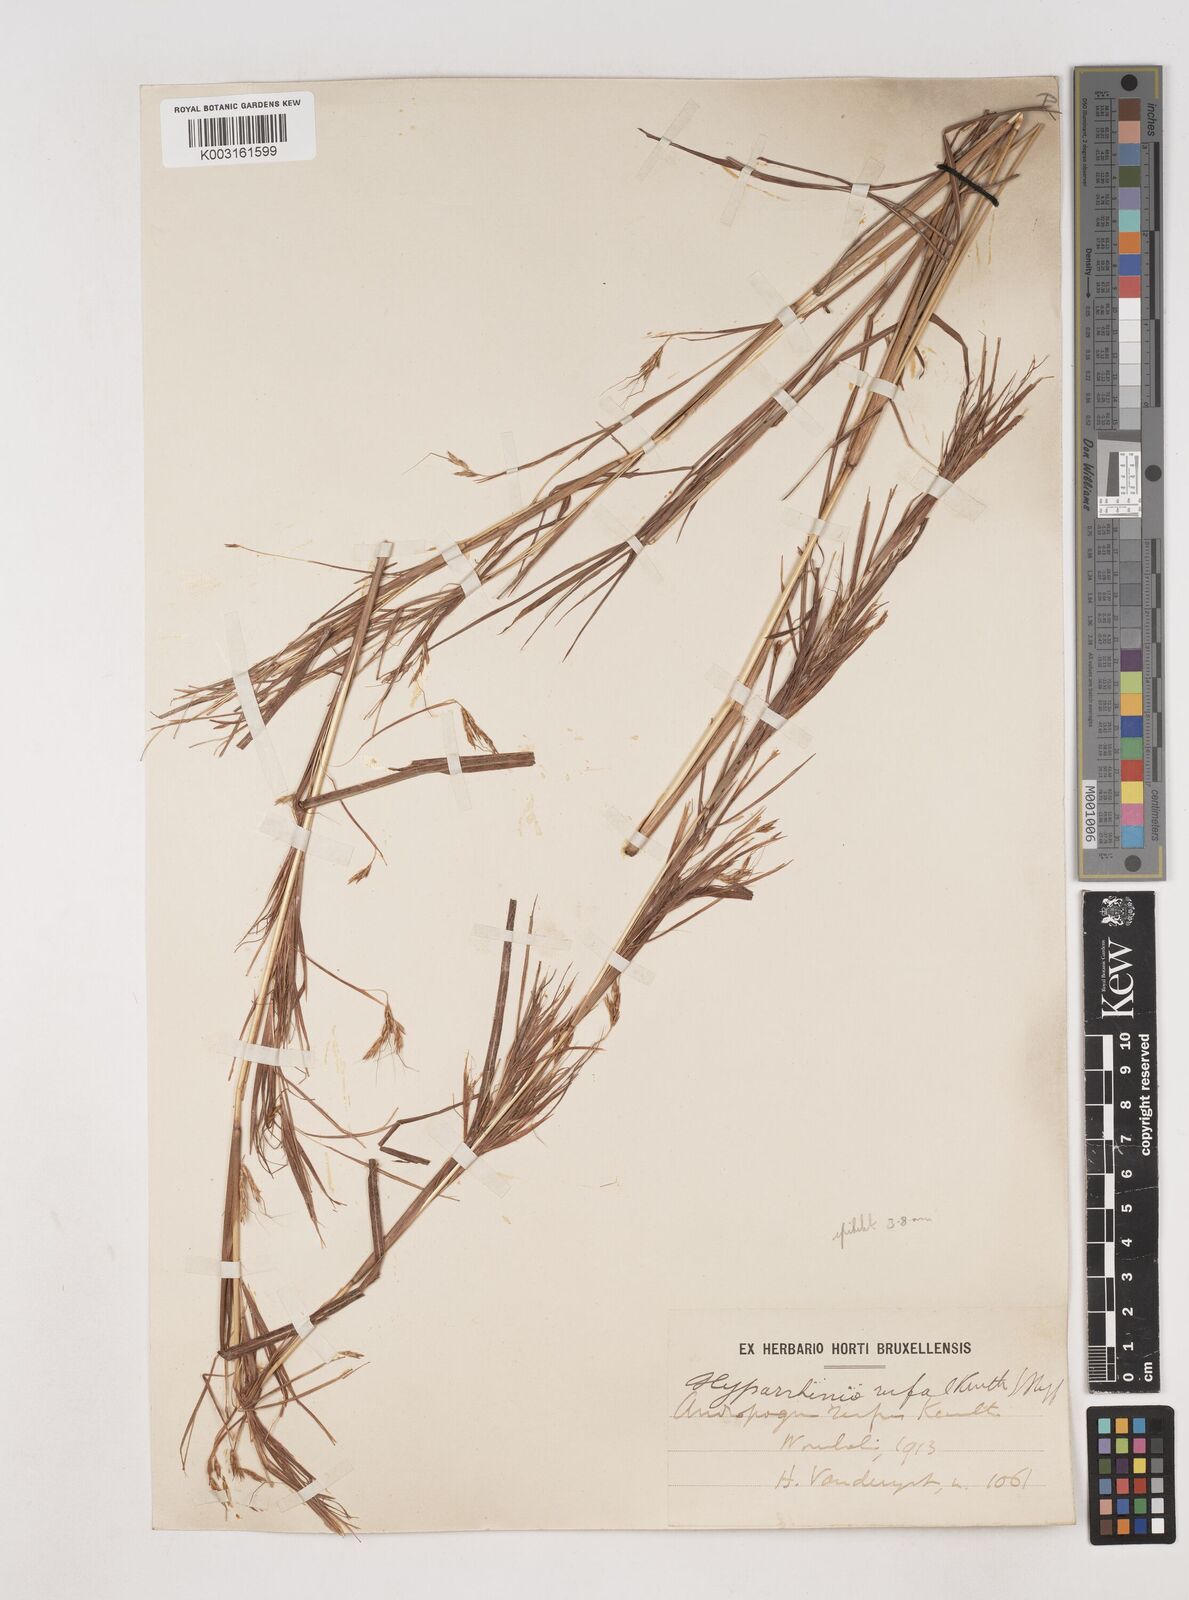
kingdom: Plantae
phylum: Tracheophyta
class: Liliopsida
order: Poales
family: Poaceae
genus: Hyparrhenia
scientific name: Hyparrhenia rufa
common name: Jaraguagrass
